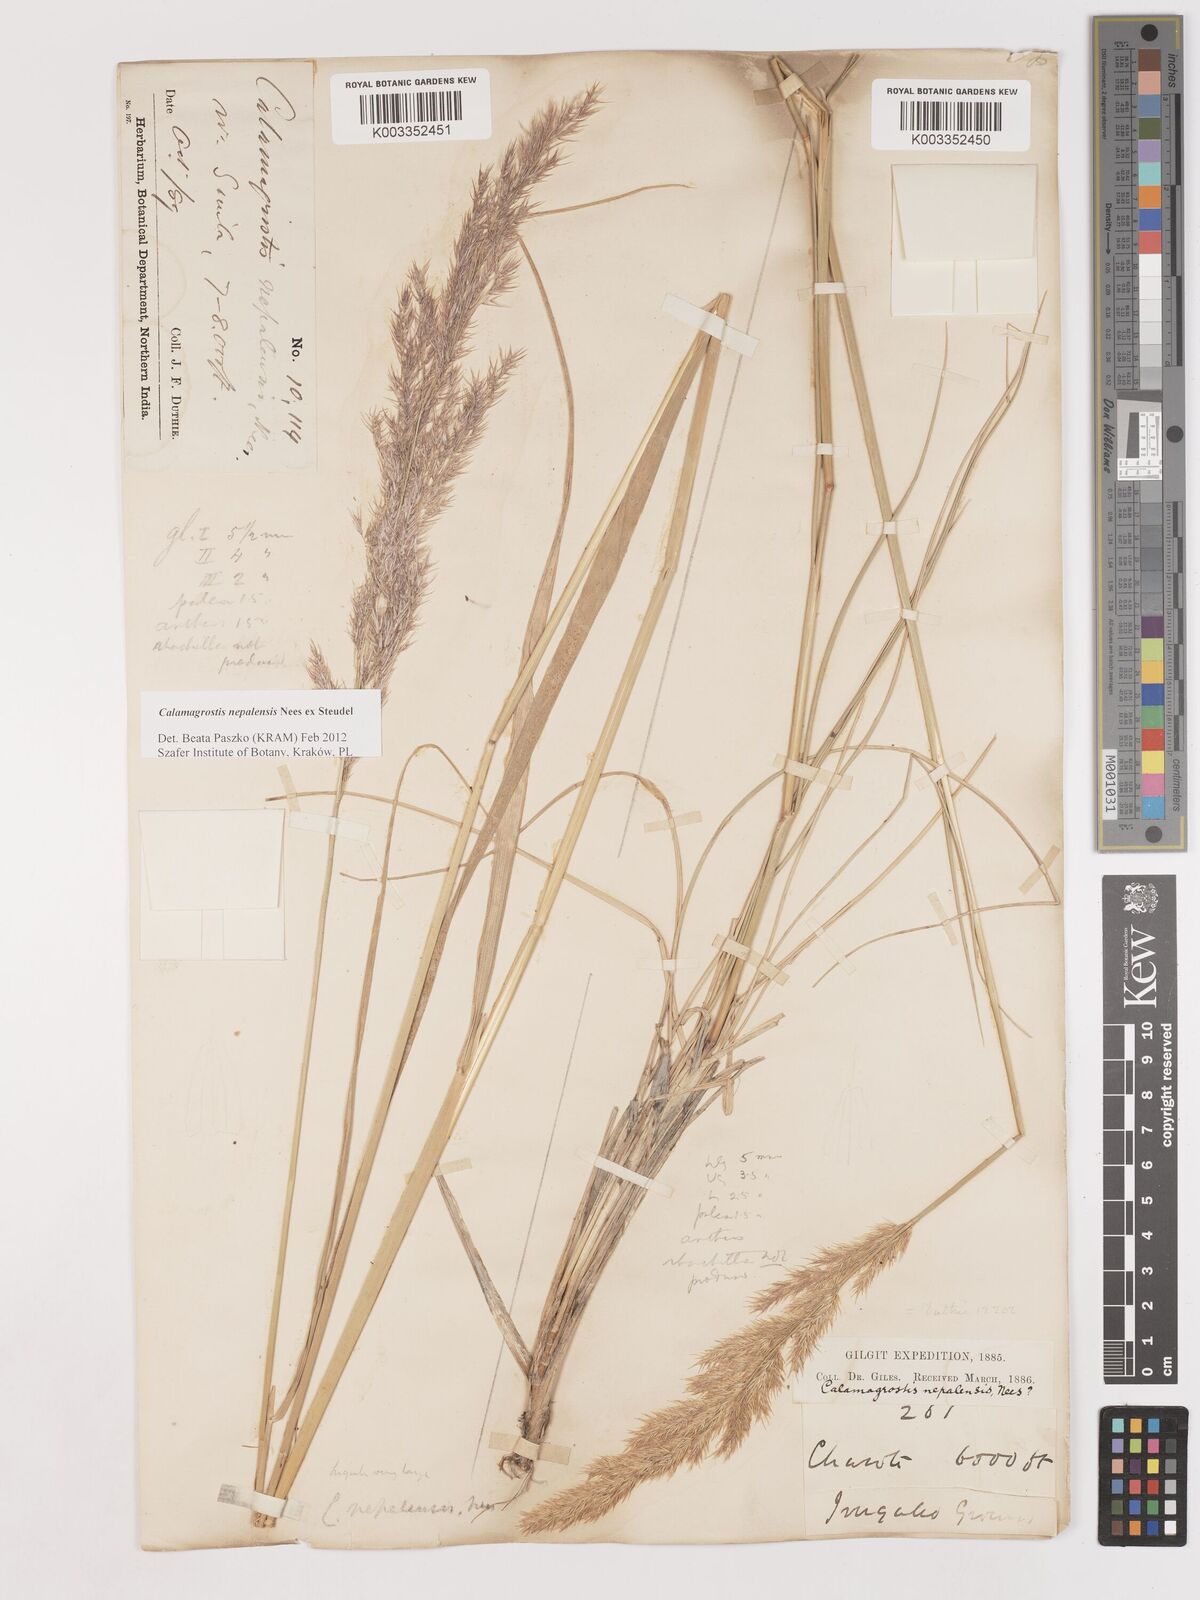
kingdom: Plantae
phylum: Tracheophyta
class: Liliopsida
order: Poales
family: Poaceae
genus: Calamagrostis
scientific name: Calamagrostis pseudophragmites
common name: Coastal small-reed
